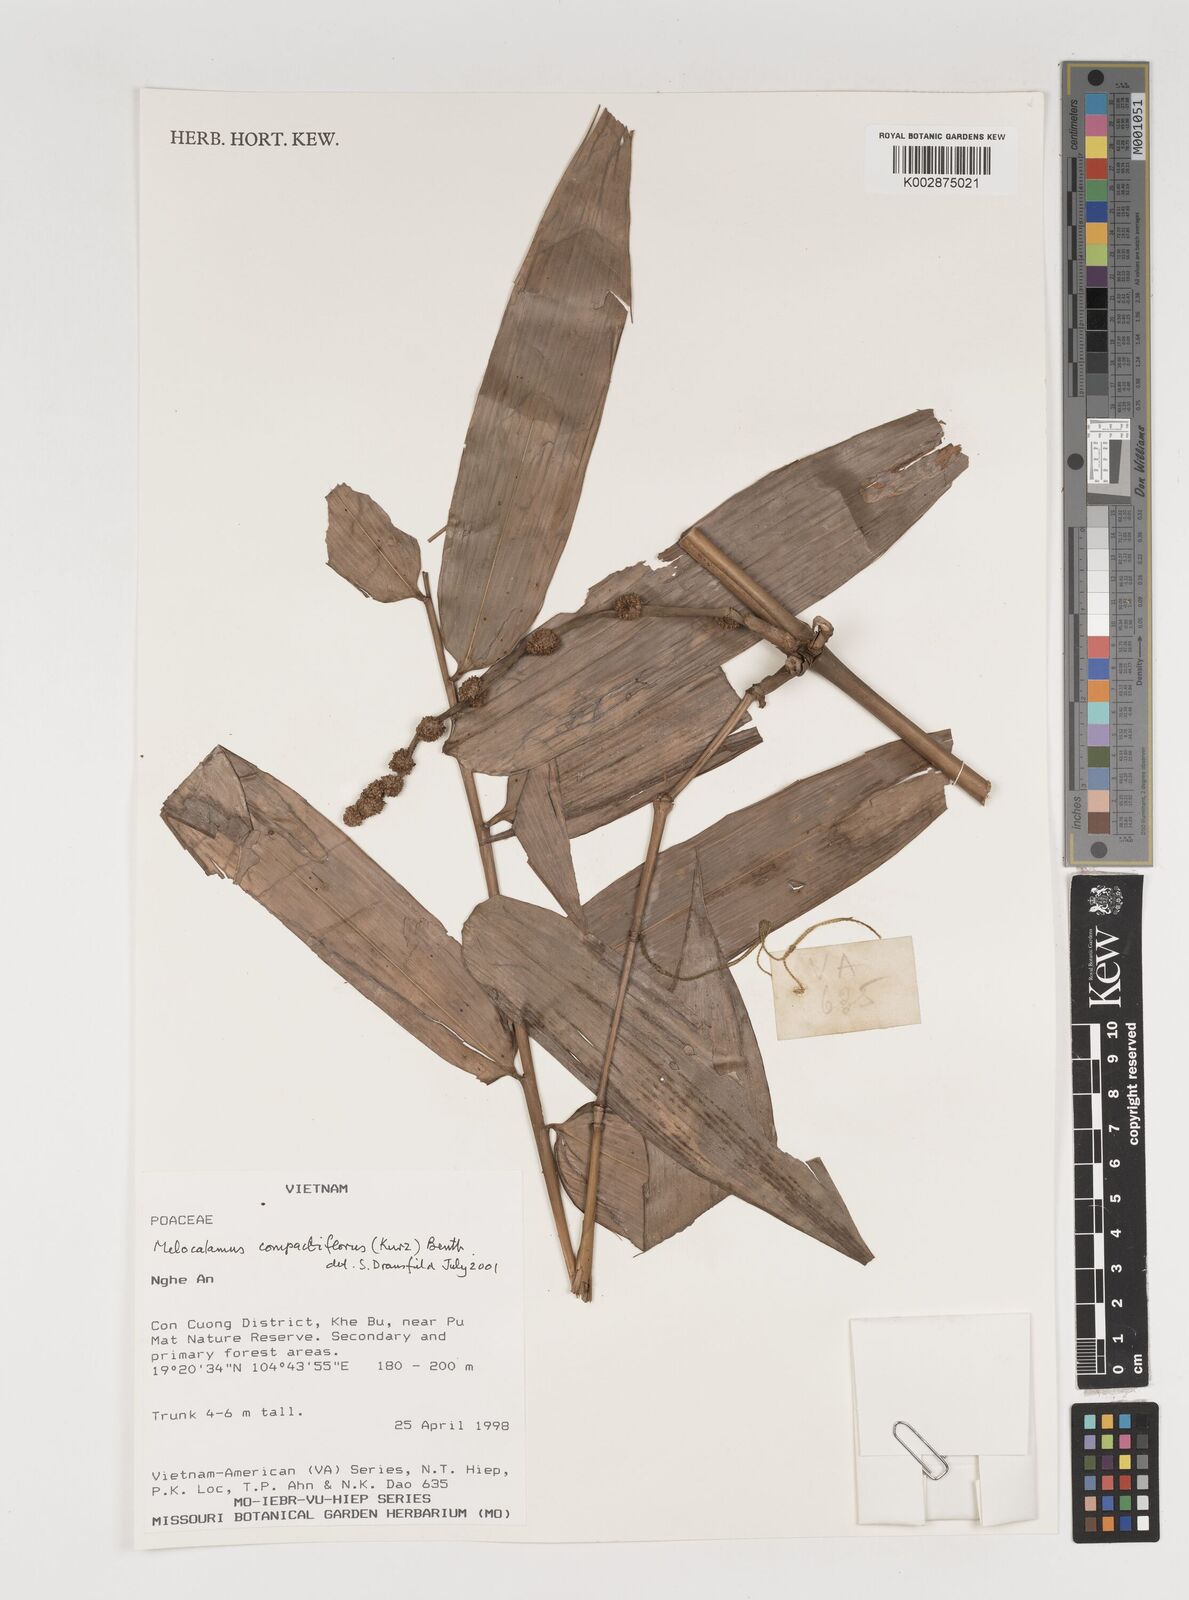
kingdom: Plantae
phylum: Tracheophyta
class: Liliopsida
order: Poales
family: Poaceae
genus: Melocalamus
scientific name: Melocalamus compactiflorus
